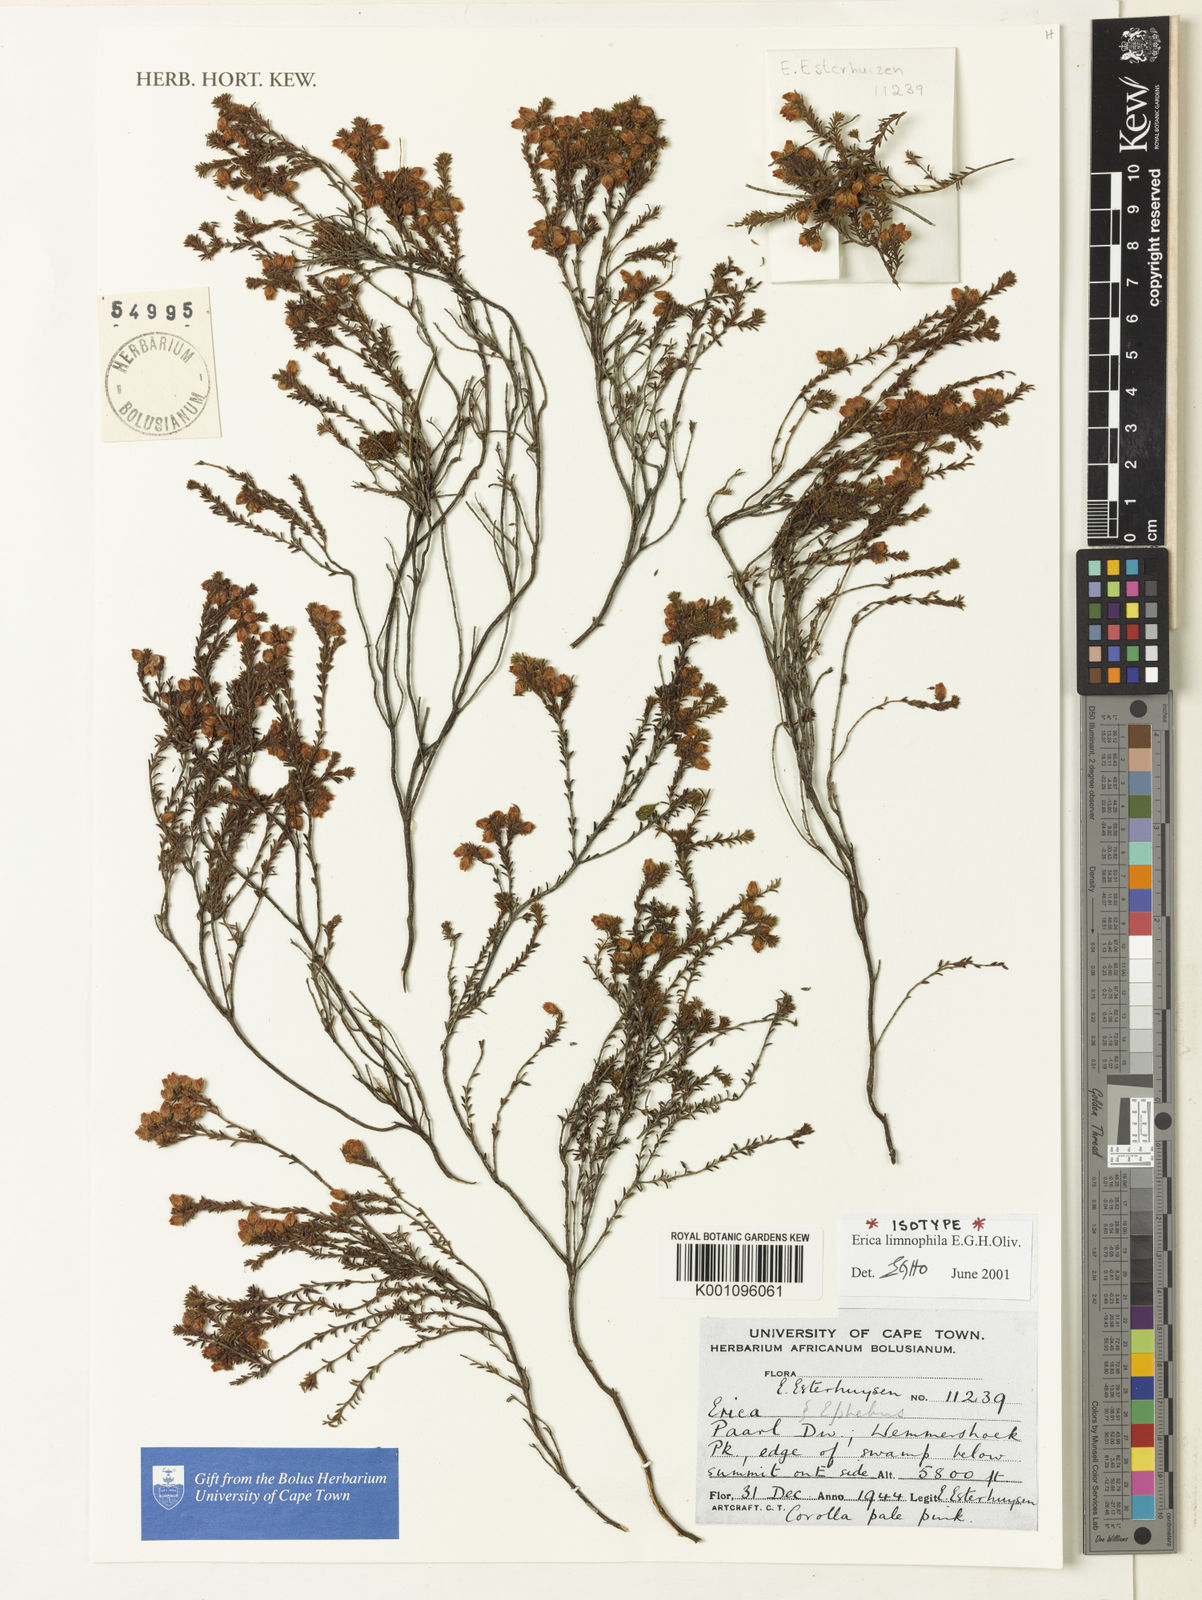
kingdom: Plantae
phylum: Tracheophyta
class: Magnoliopsida
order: Ericales
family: Ericaceae
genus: Erica
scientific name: Erica limnophila
